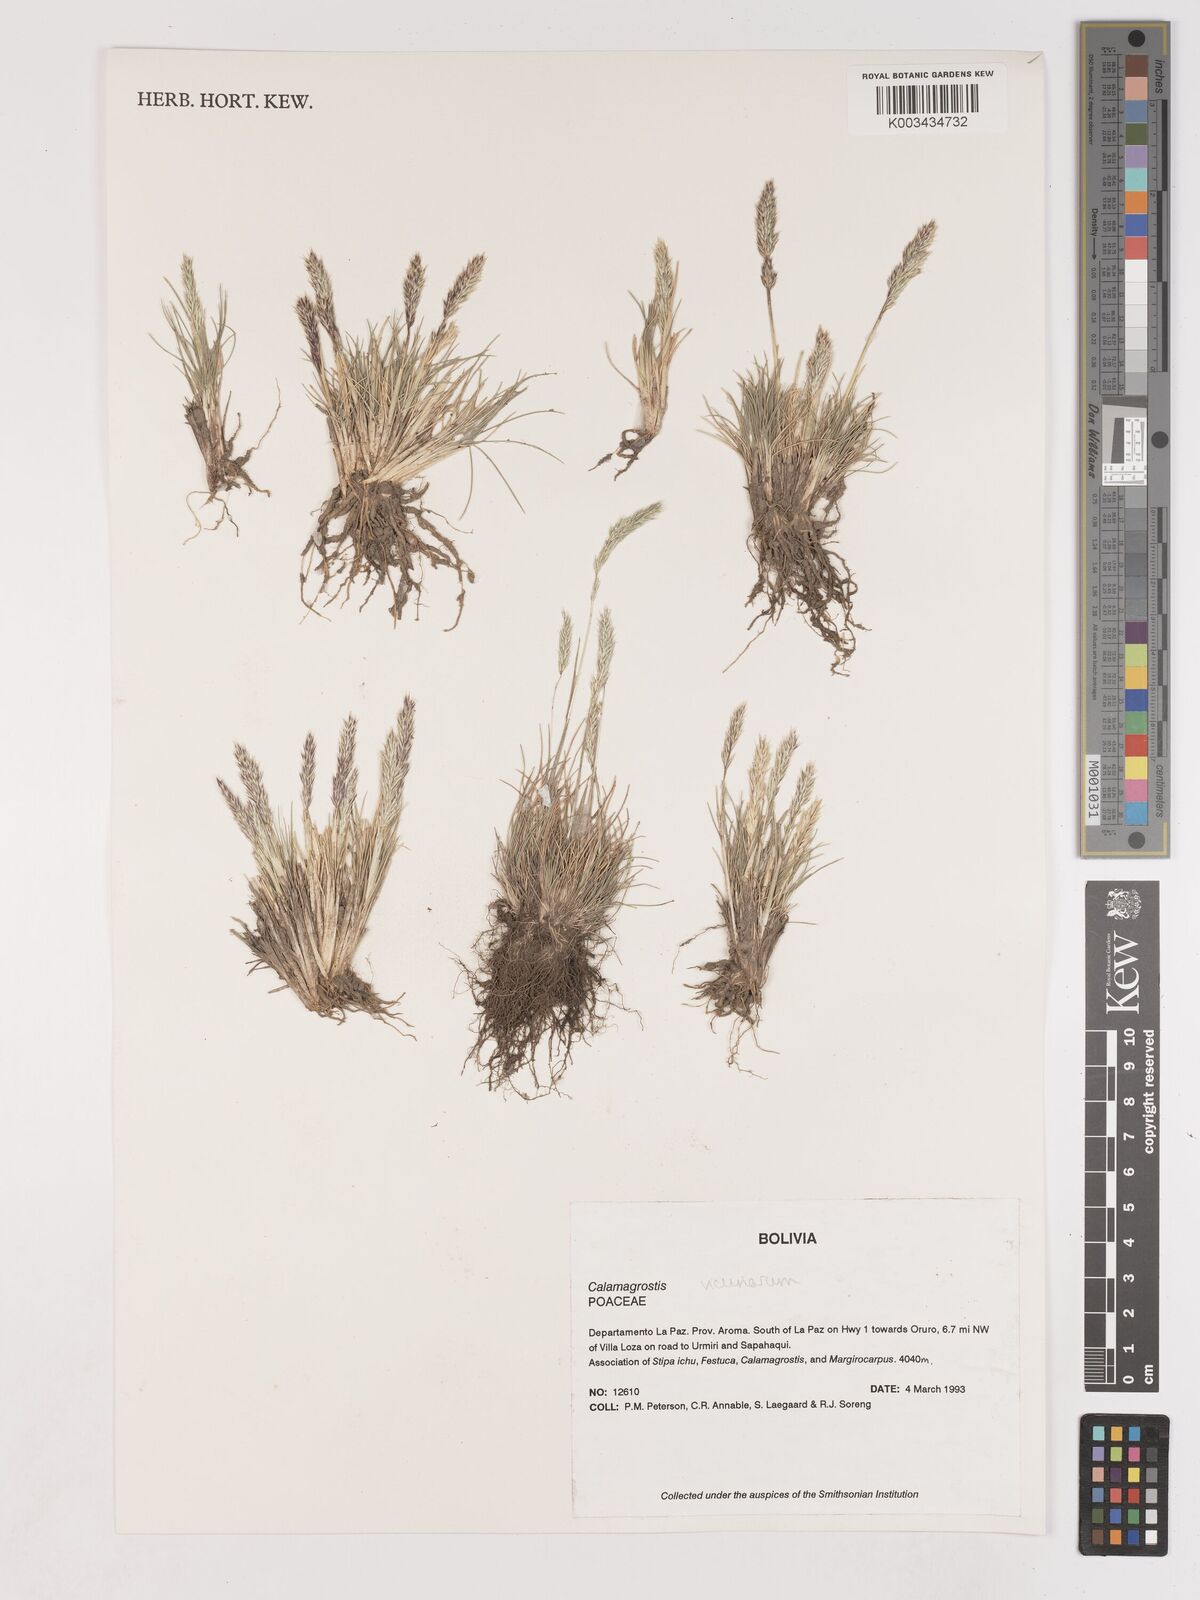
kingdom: Plantae
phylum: Tracheophyta
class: Liliopsida
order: Poales
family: Poaceae
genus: Cinnagrostis
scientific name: Cinnagrostis vicunarum
